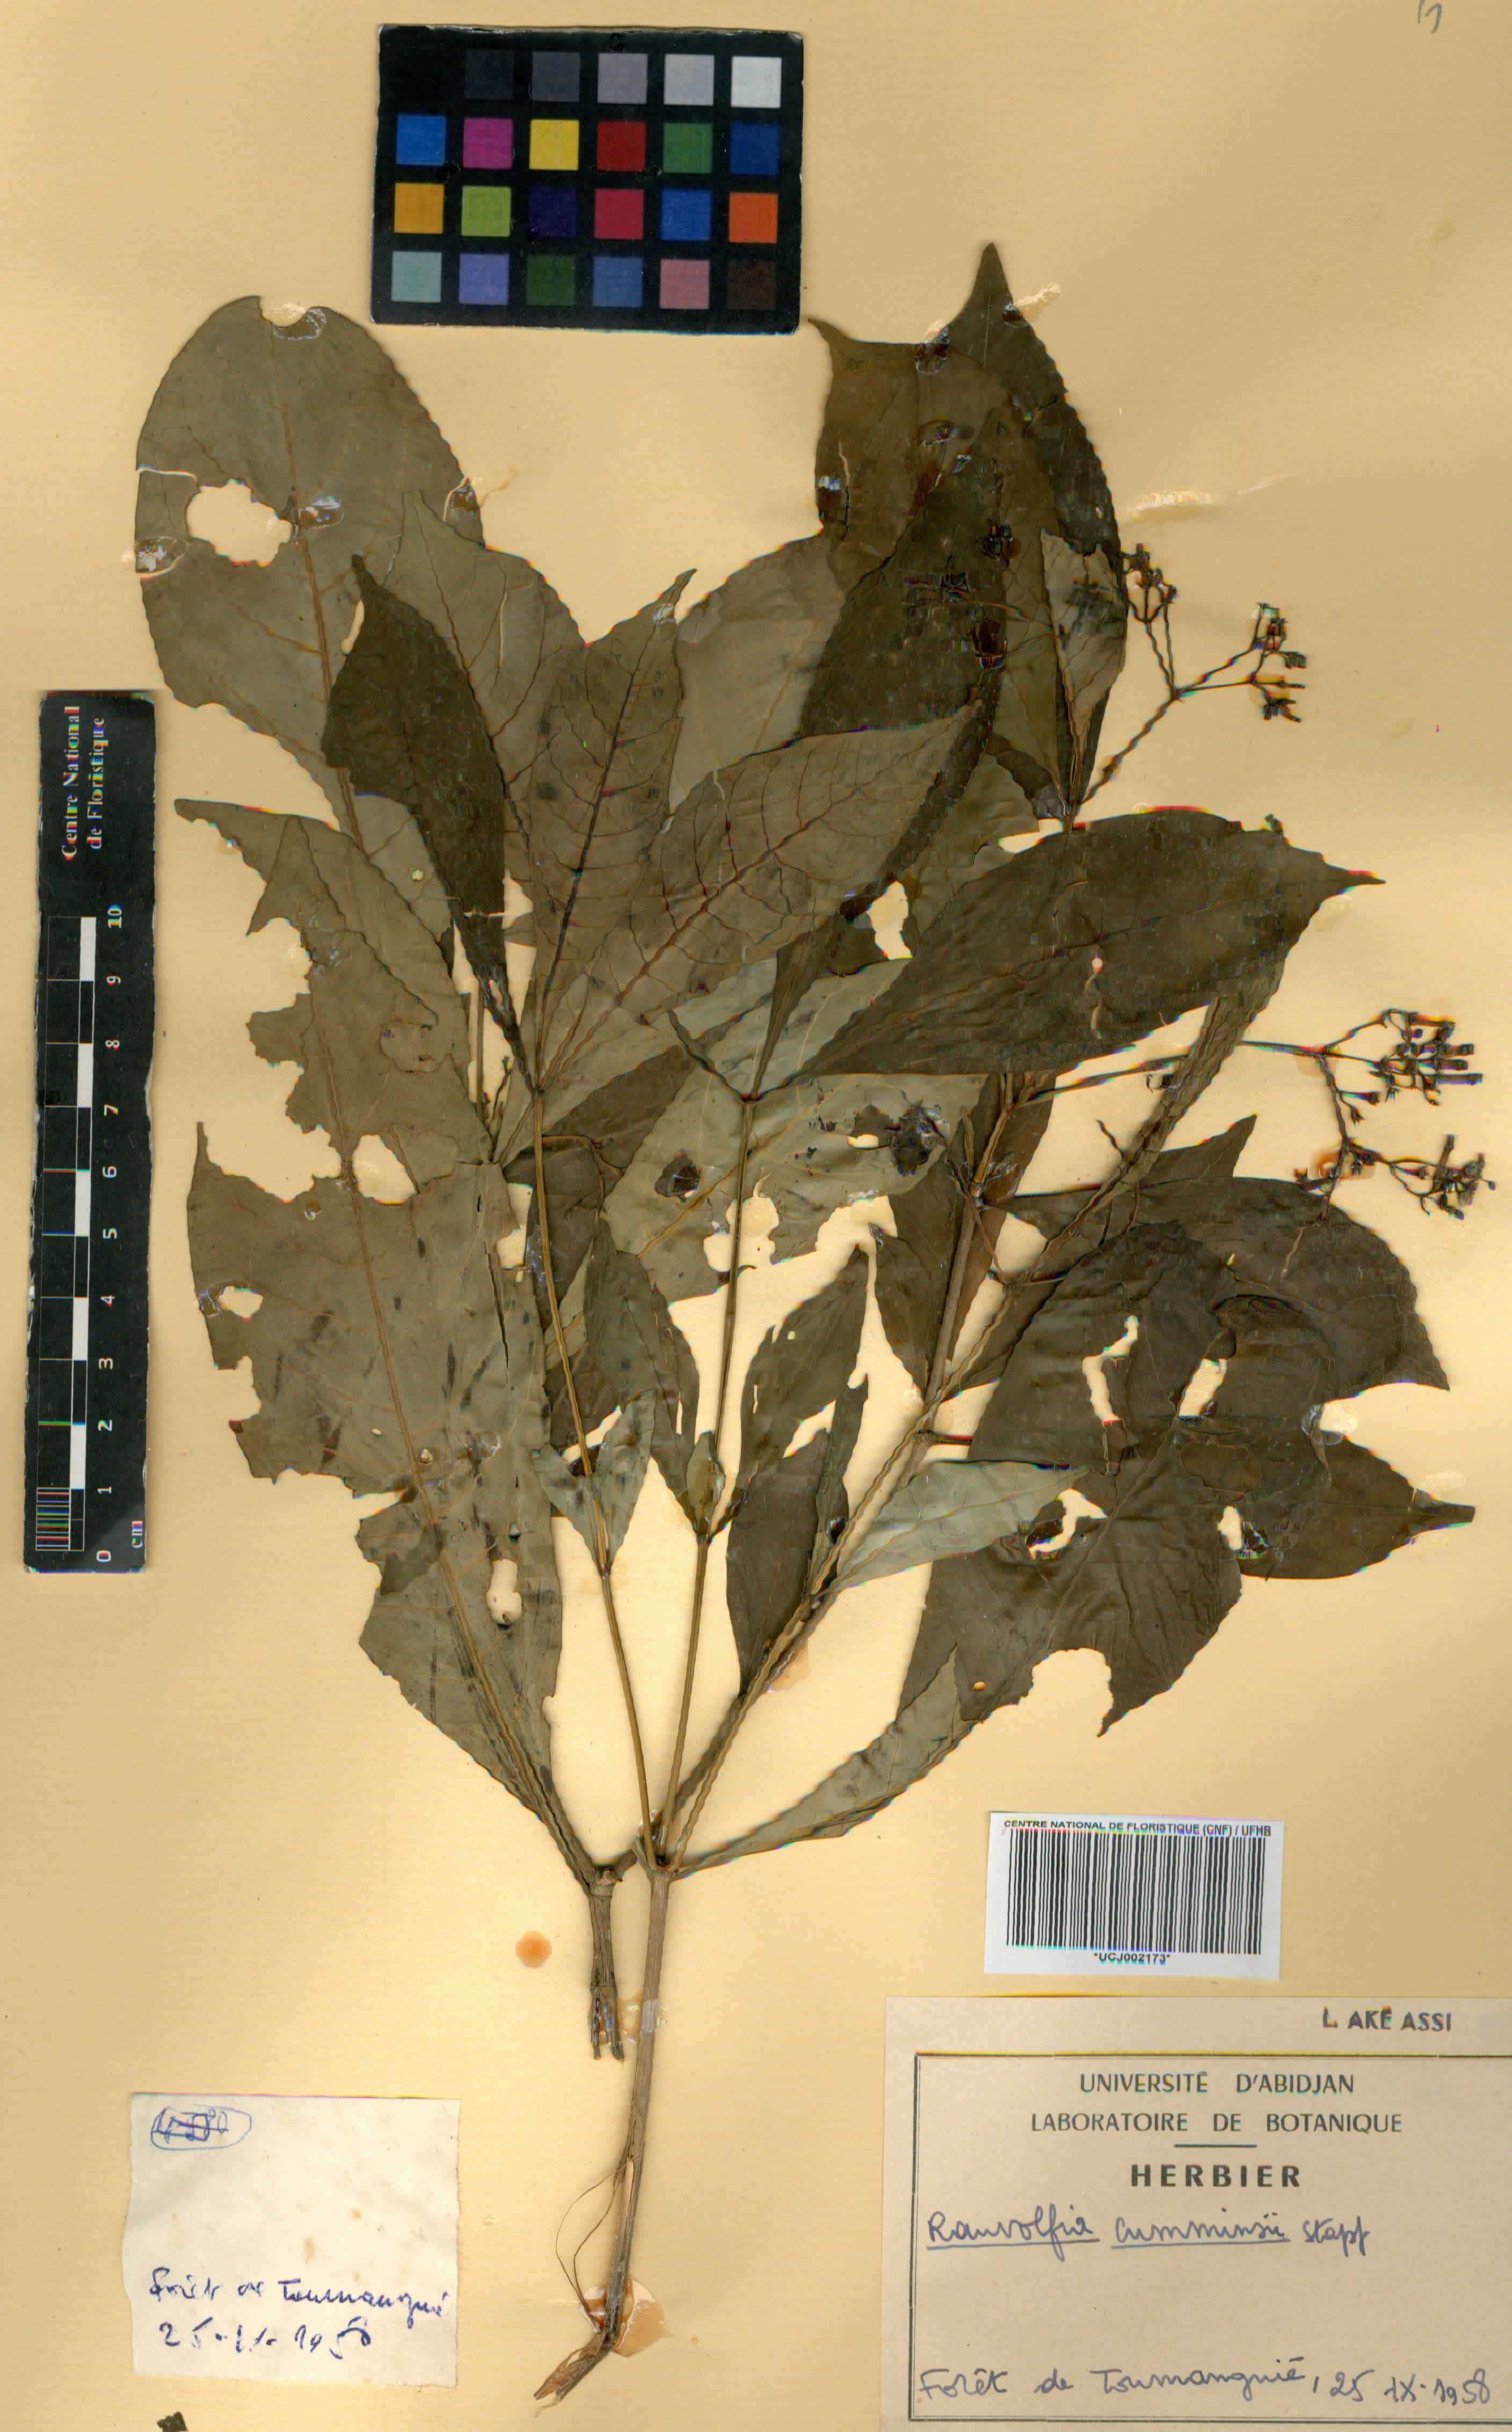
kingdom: Plantae
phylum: Tracheophyta
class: Magnoliopsida
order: Gentianales
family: Apocynaceae
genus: Rauvolfia
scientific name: Rauvolfia mannii
